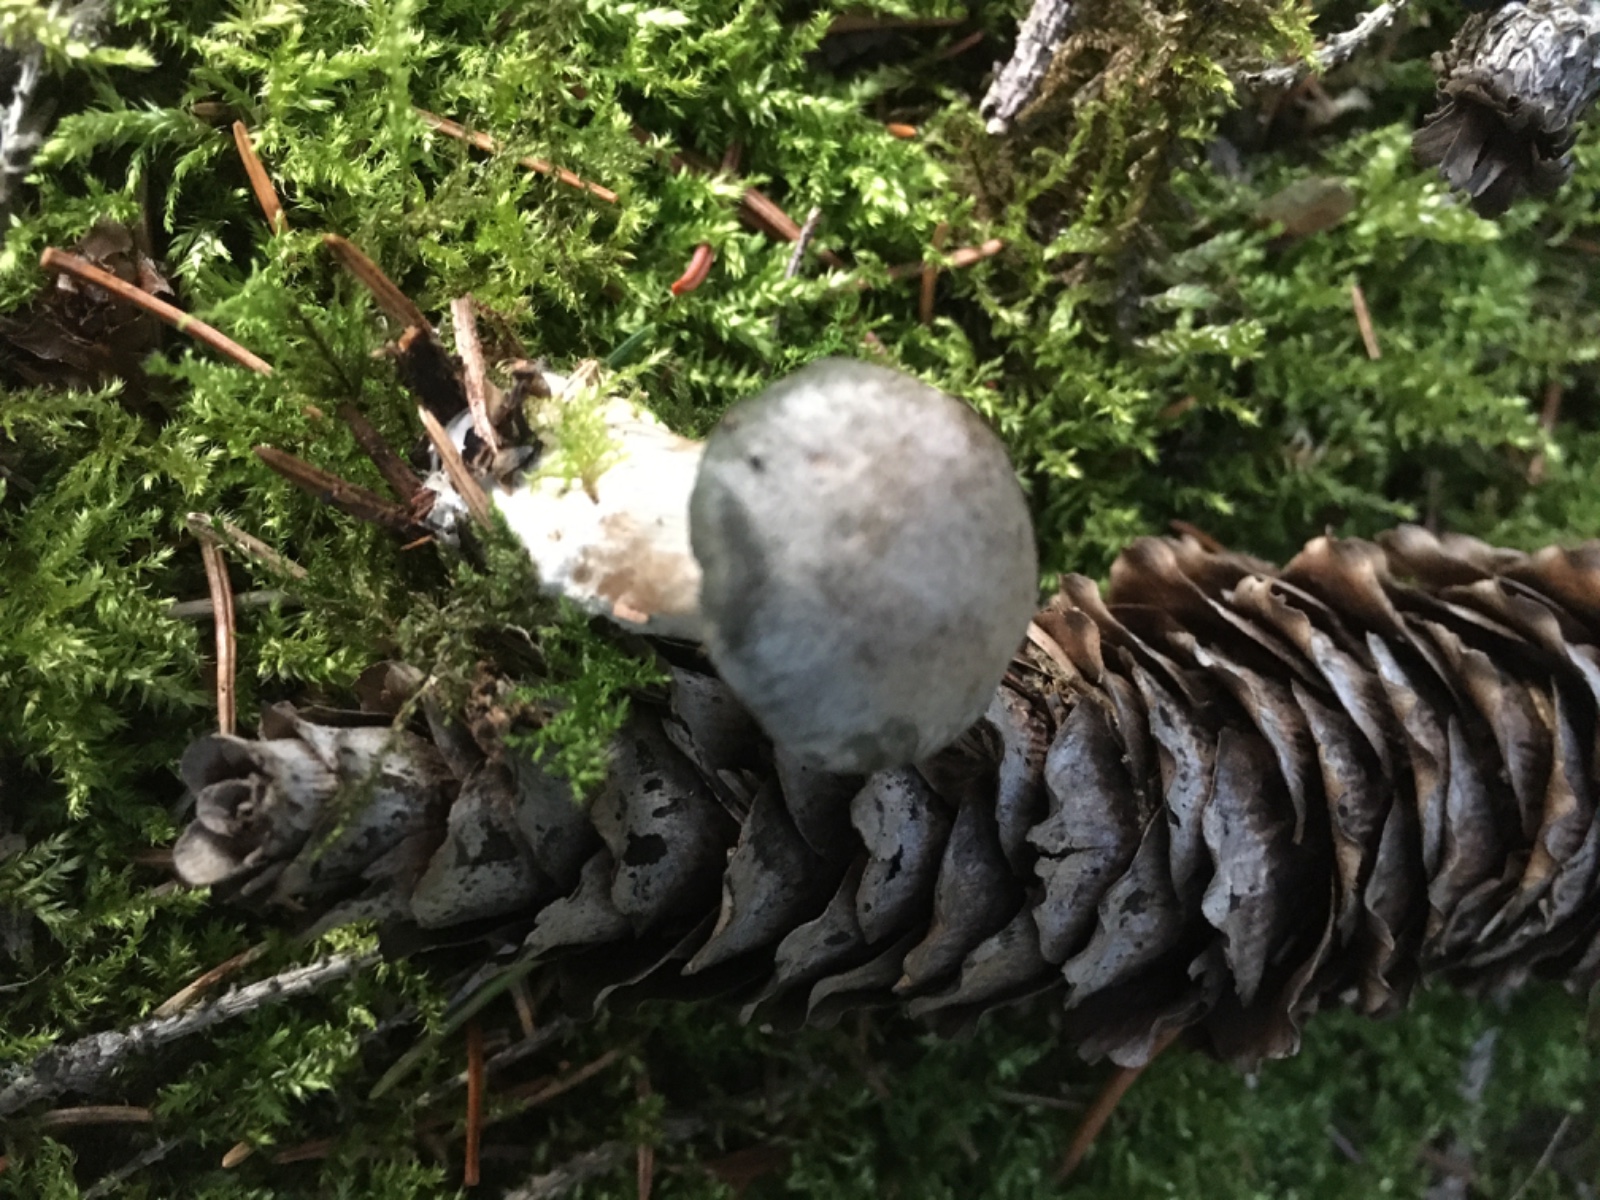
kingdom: Fungi
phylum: Basidiomycota
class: Agaricomycetes
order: Agaricales
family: Tricholomataceae
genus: Clitocybe
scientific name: Clitocybe odora
